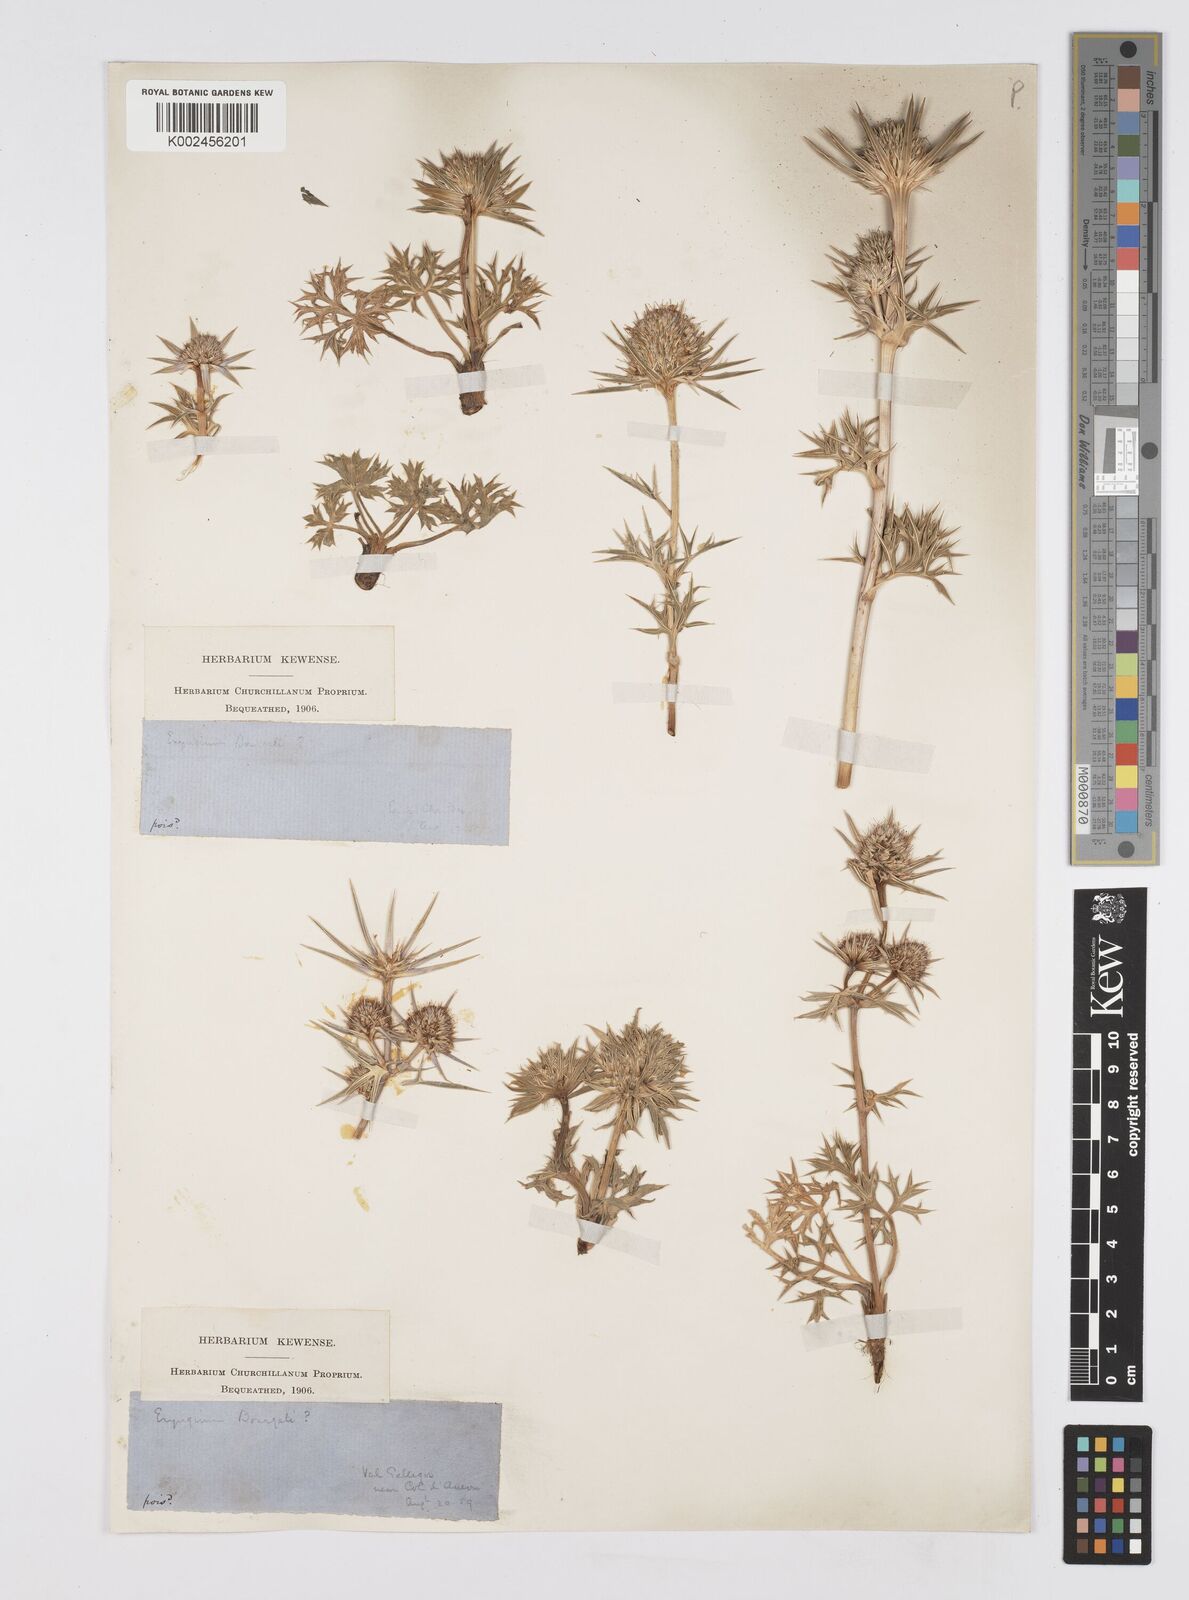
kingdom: Plantae
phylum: Tracheophyta
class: Magnoliopsida
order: Apiales
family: Apiaceae
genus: Eryngium
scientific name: Eryngium bourgatii
